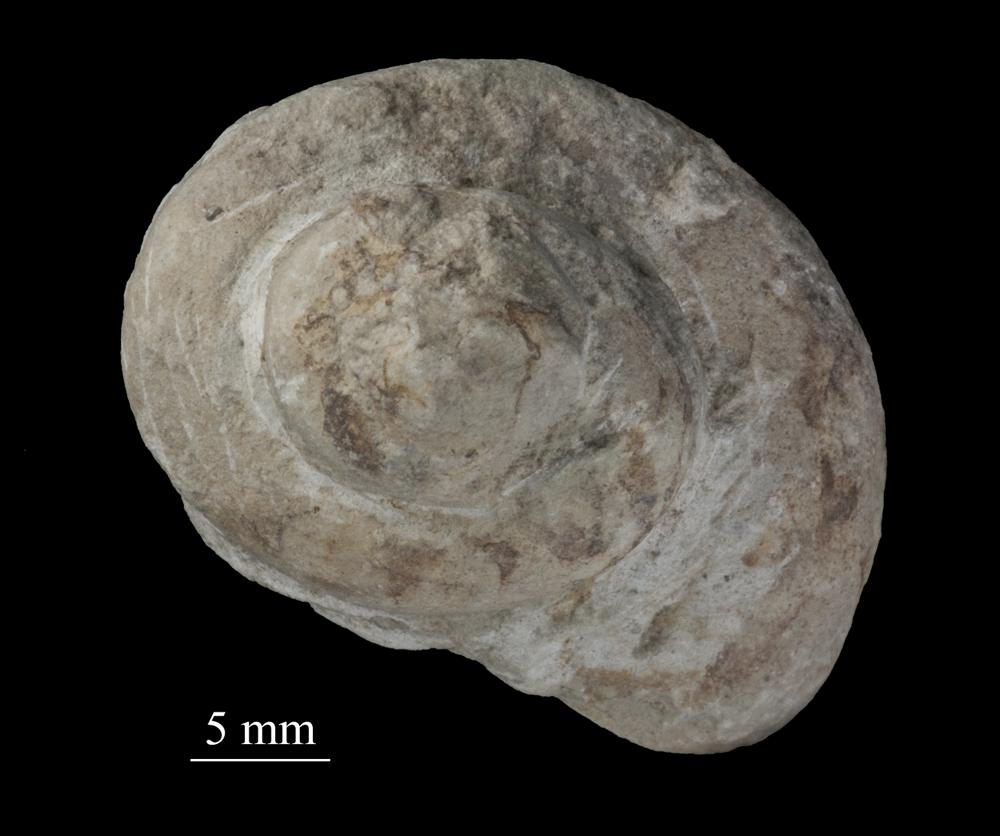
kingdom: Animalia
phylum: Mollusca
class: Gastropoda
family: Lophospiridae
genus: Ruedemannia
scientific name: Ruedemannia Worthenia borkholmiensis
